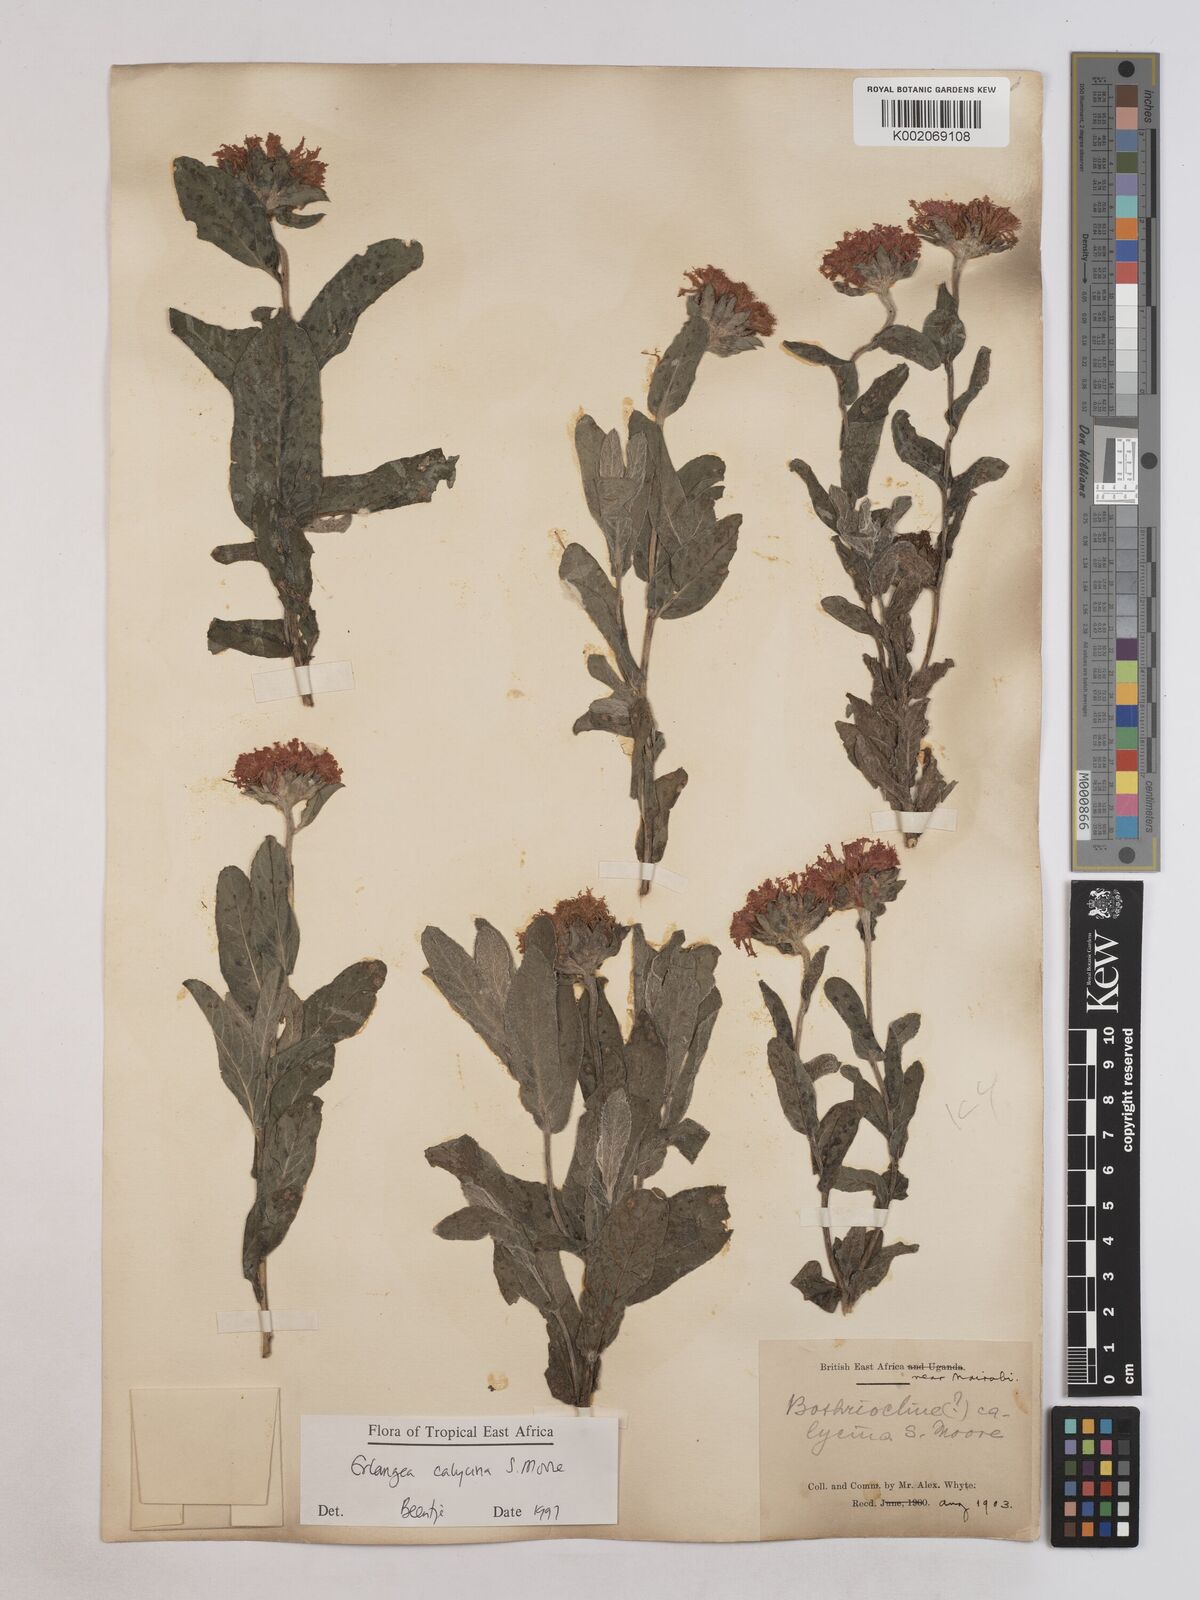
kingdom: Plantae
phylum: Tracheophyta
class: Magnoliopsida
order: Asterales
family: Asteraceae
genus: Erlangea
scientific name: Erlangea calycina
